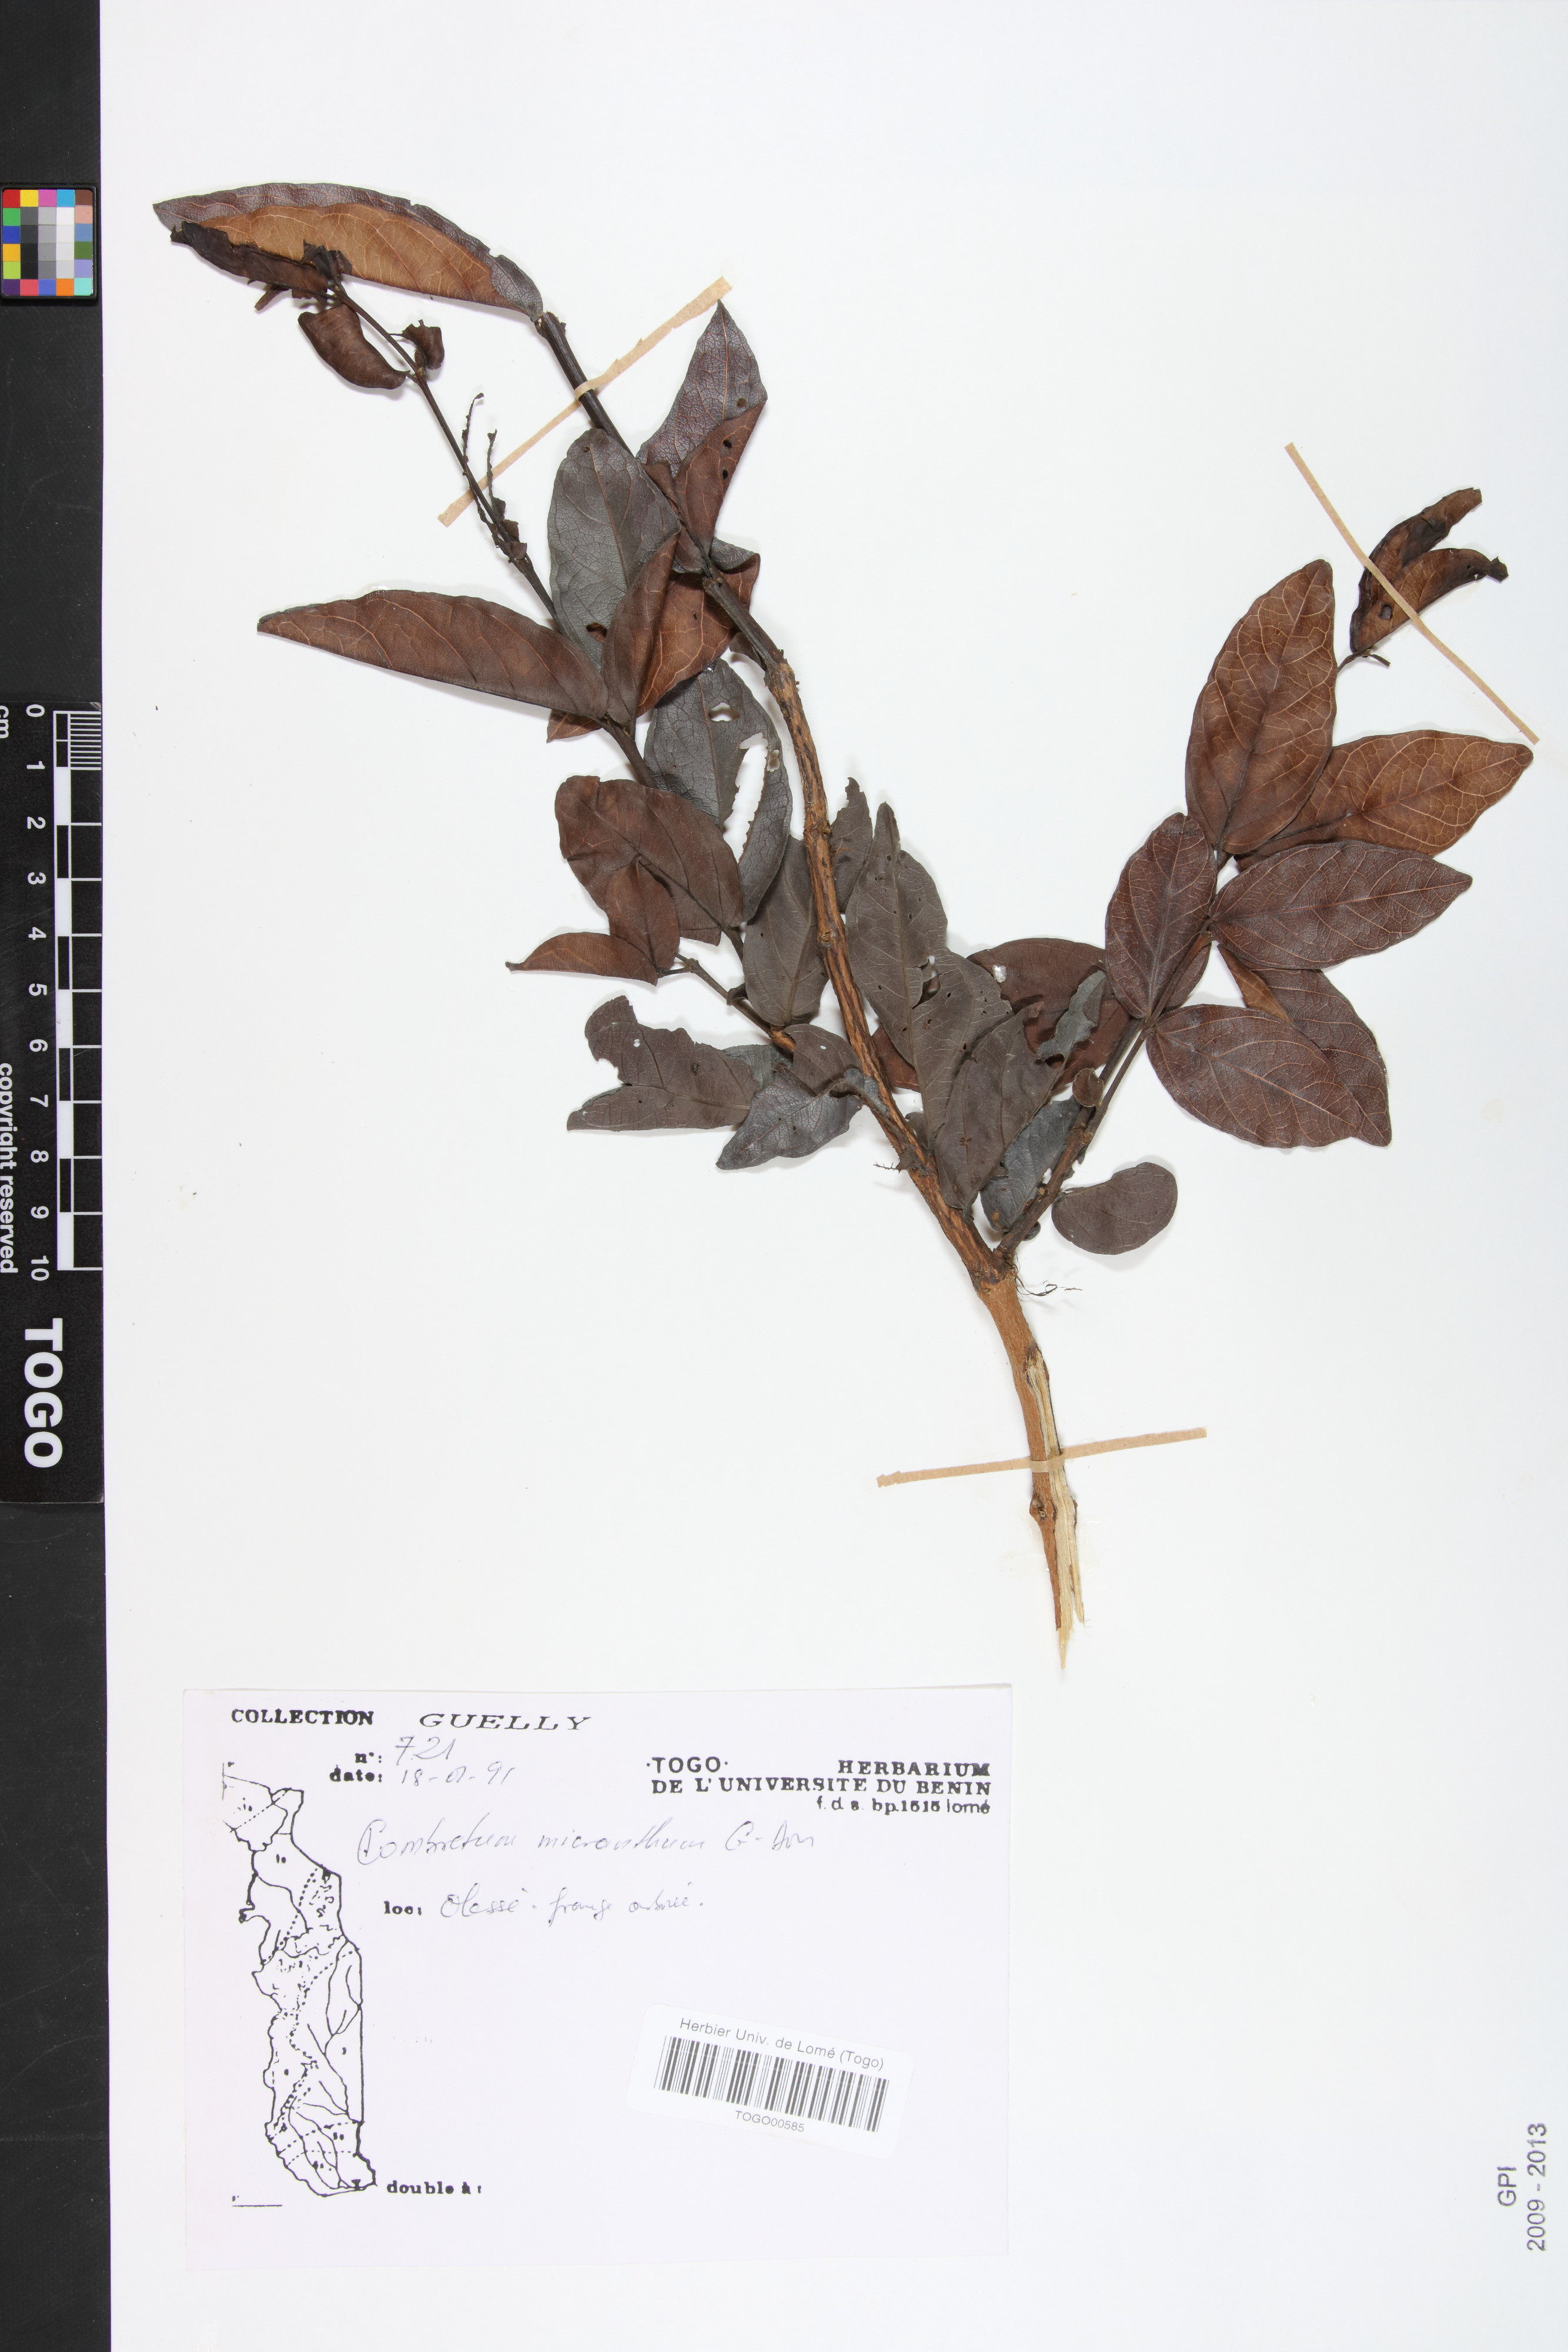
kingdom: Plantae
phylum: Tracheophyta
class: Magnoliopsida
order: Myrtales
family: Combretaceae
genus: Combretum
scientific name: Combretum micranthum
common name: Opium-antidote
